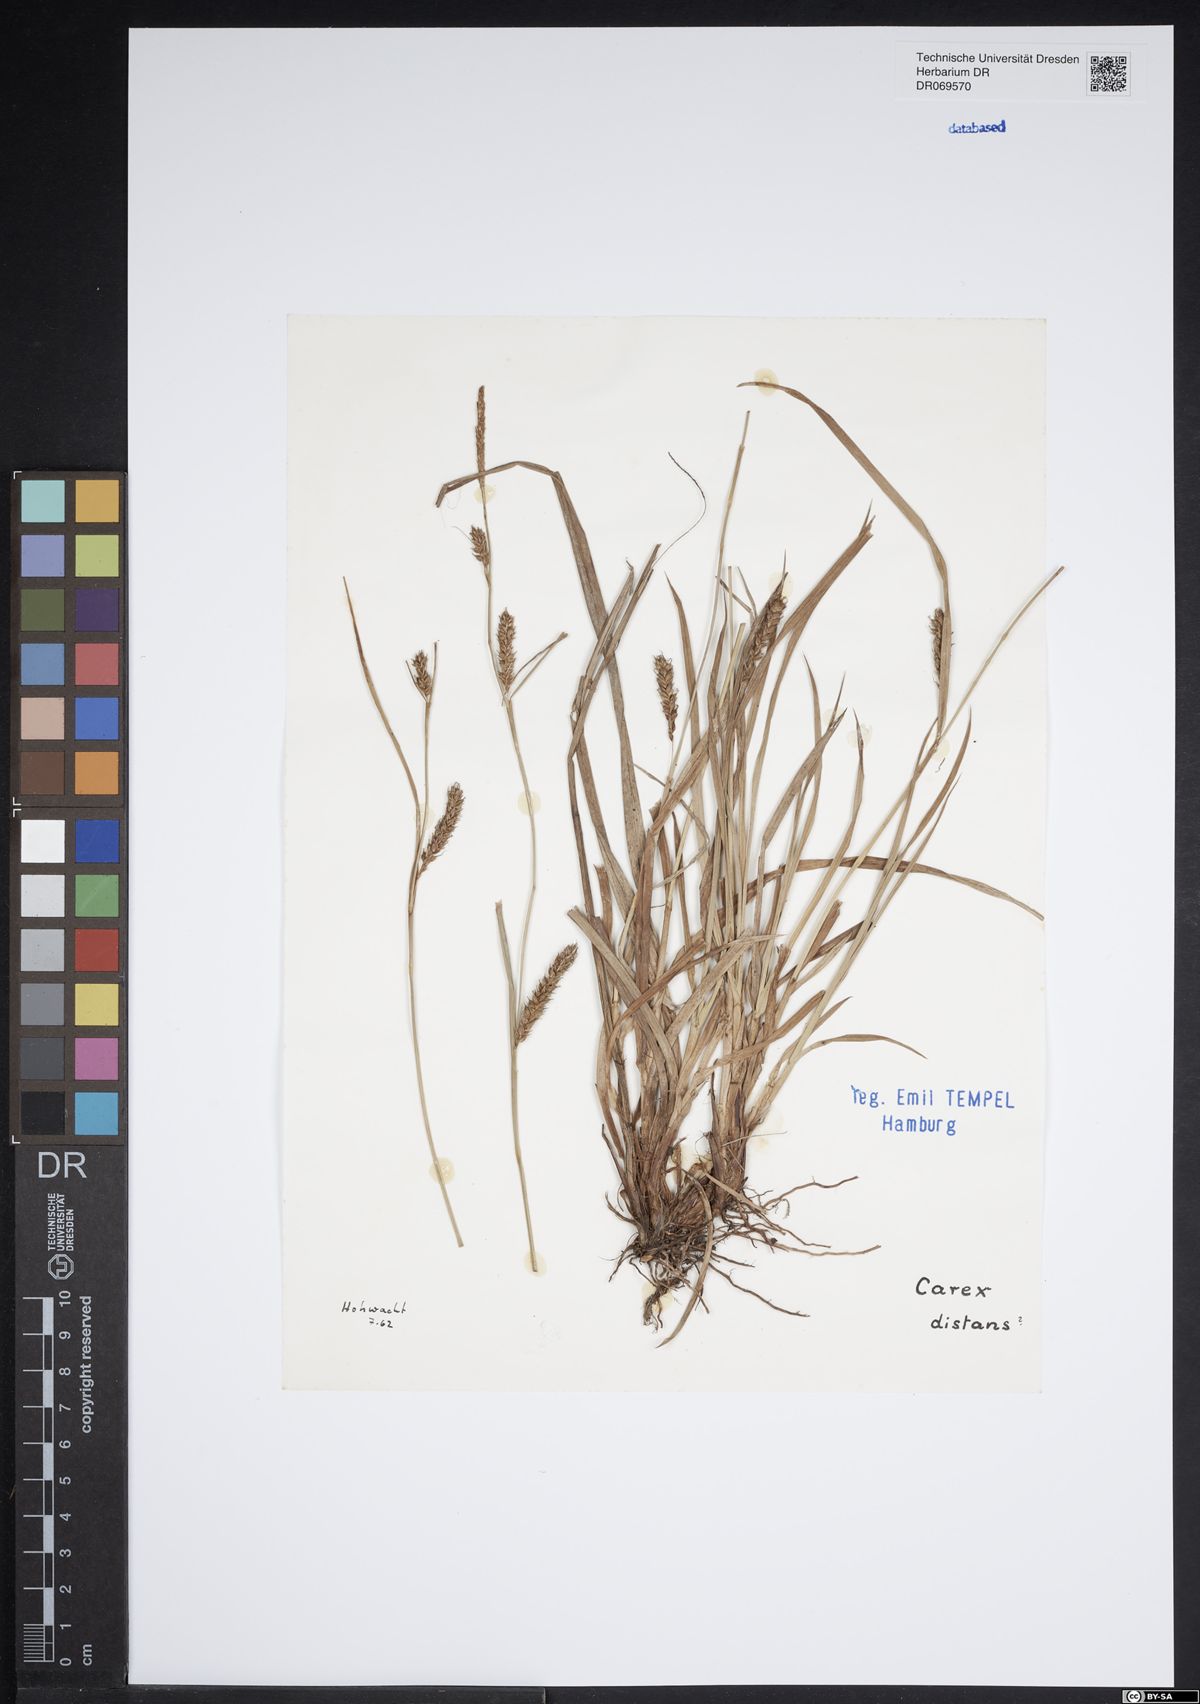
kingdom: Plantae
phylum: Tracheophyta
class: Liliopsida
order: Poales
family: Cyperaceae
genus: Carex
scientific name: Carex distans
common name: Distant sedge
